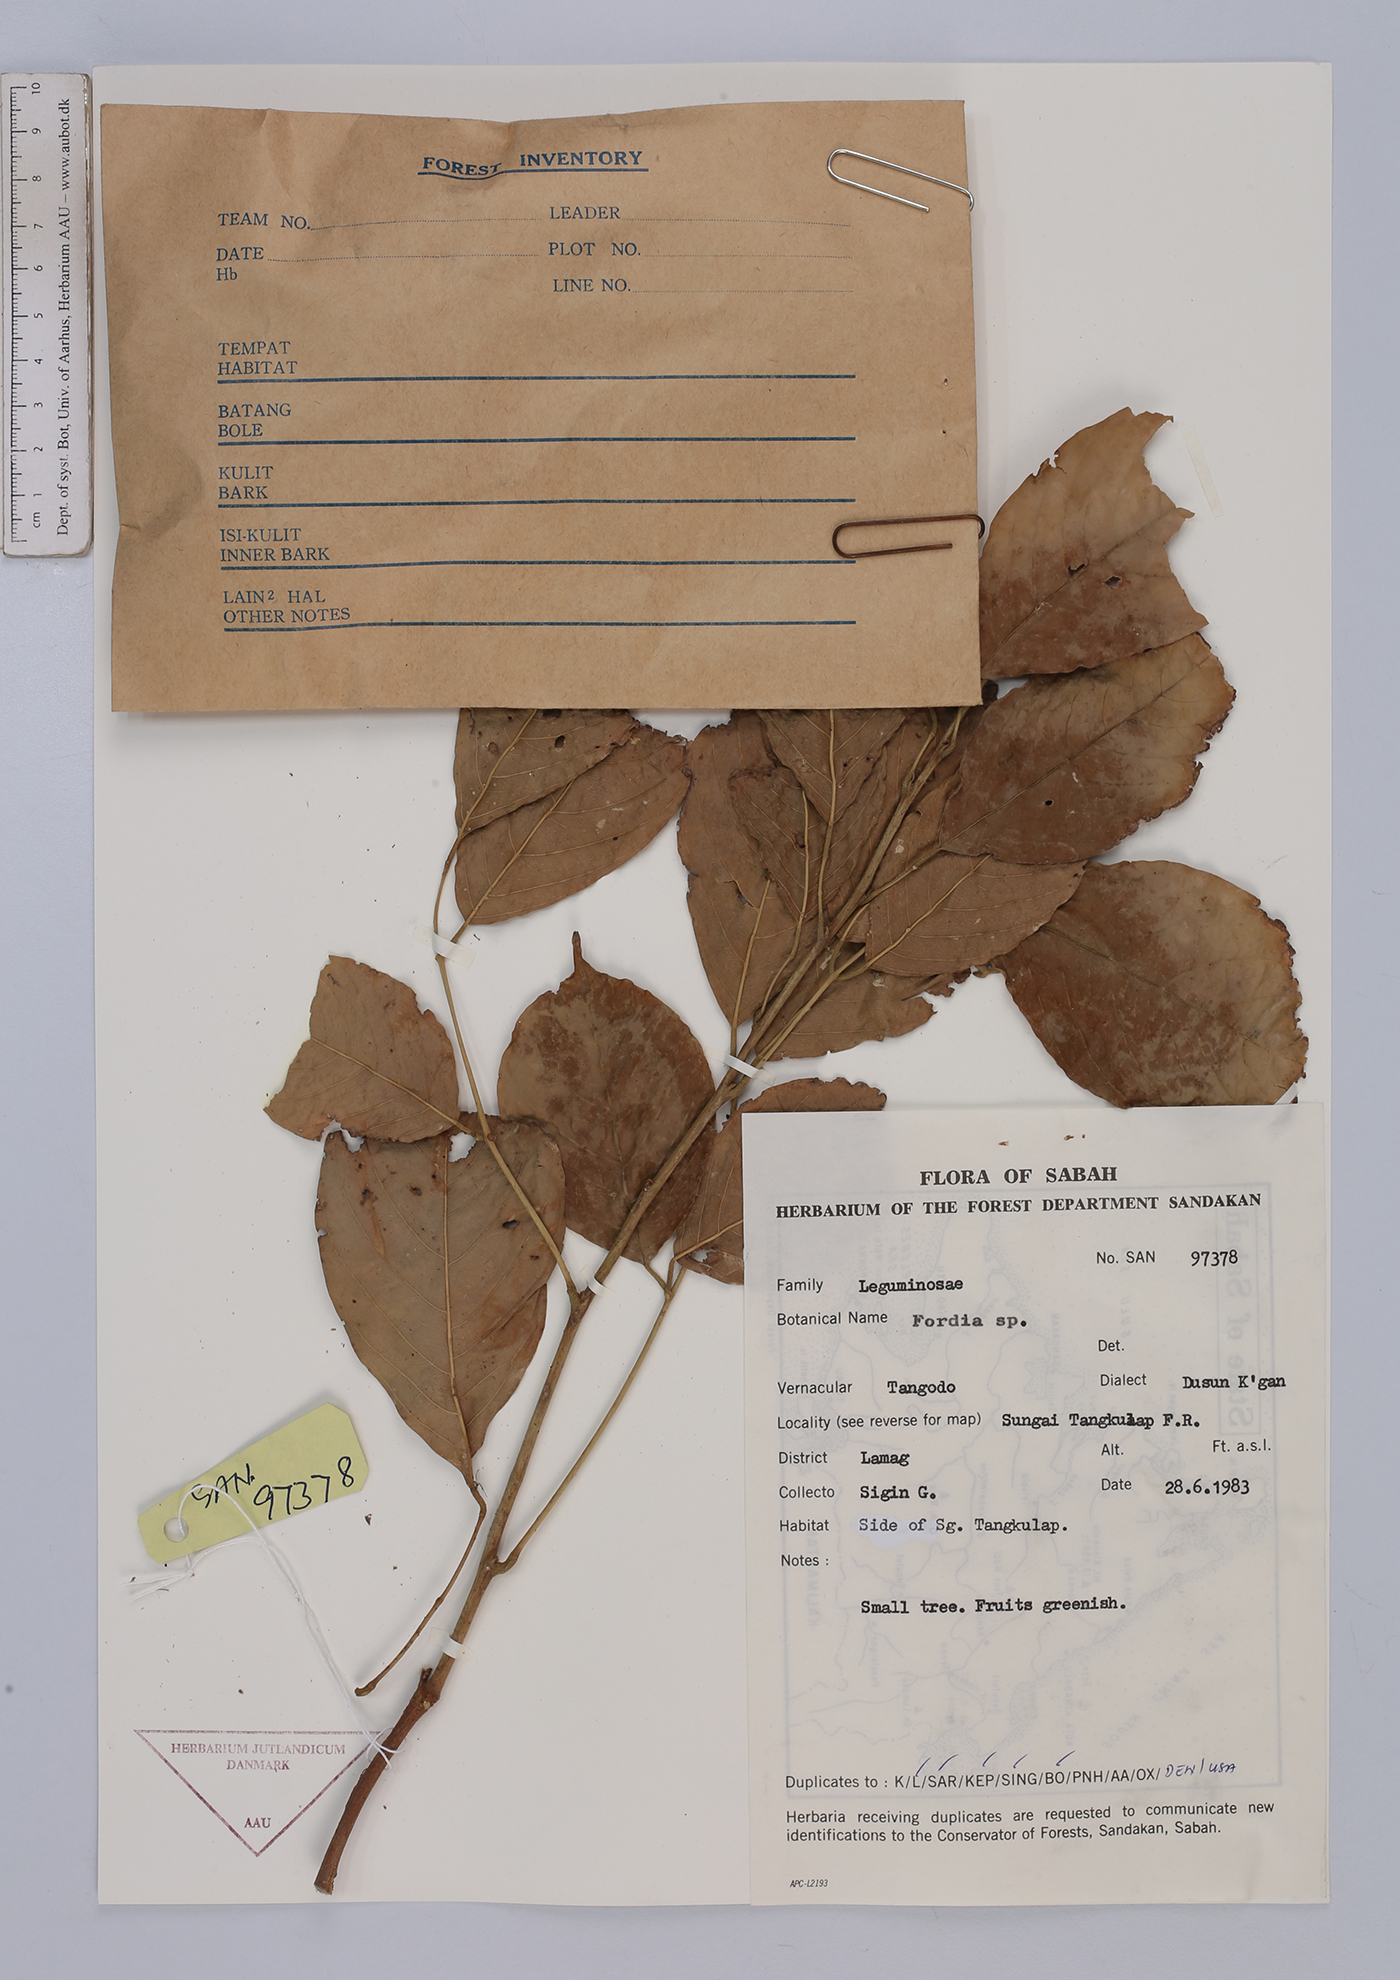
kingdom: Plantae
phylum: Tracheophyta
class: Magnoliopsida
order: Fabales
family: Fabaceae
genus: Fordia
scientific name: Fordia
